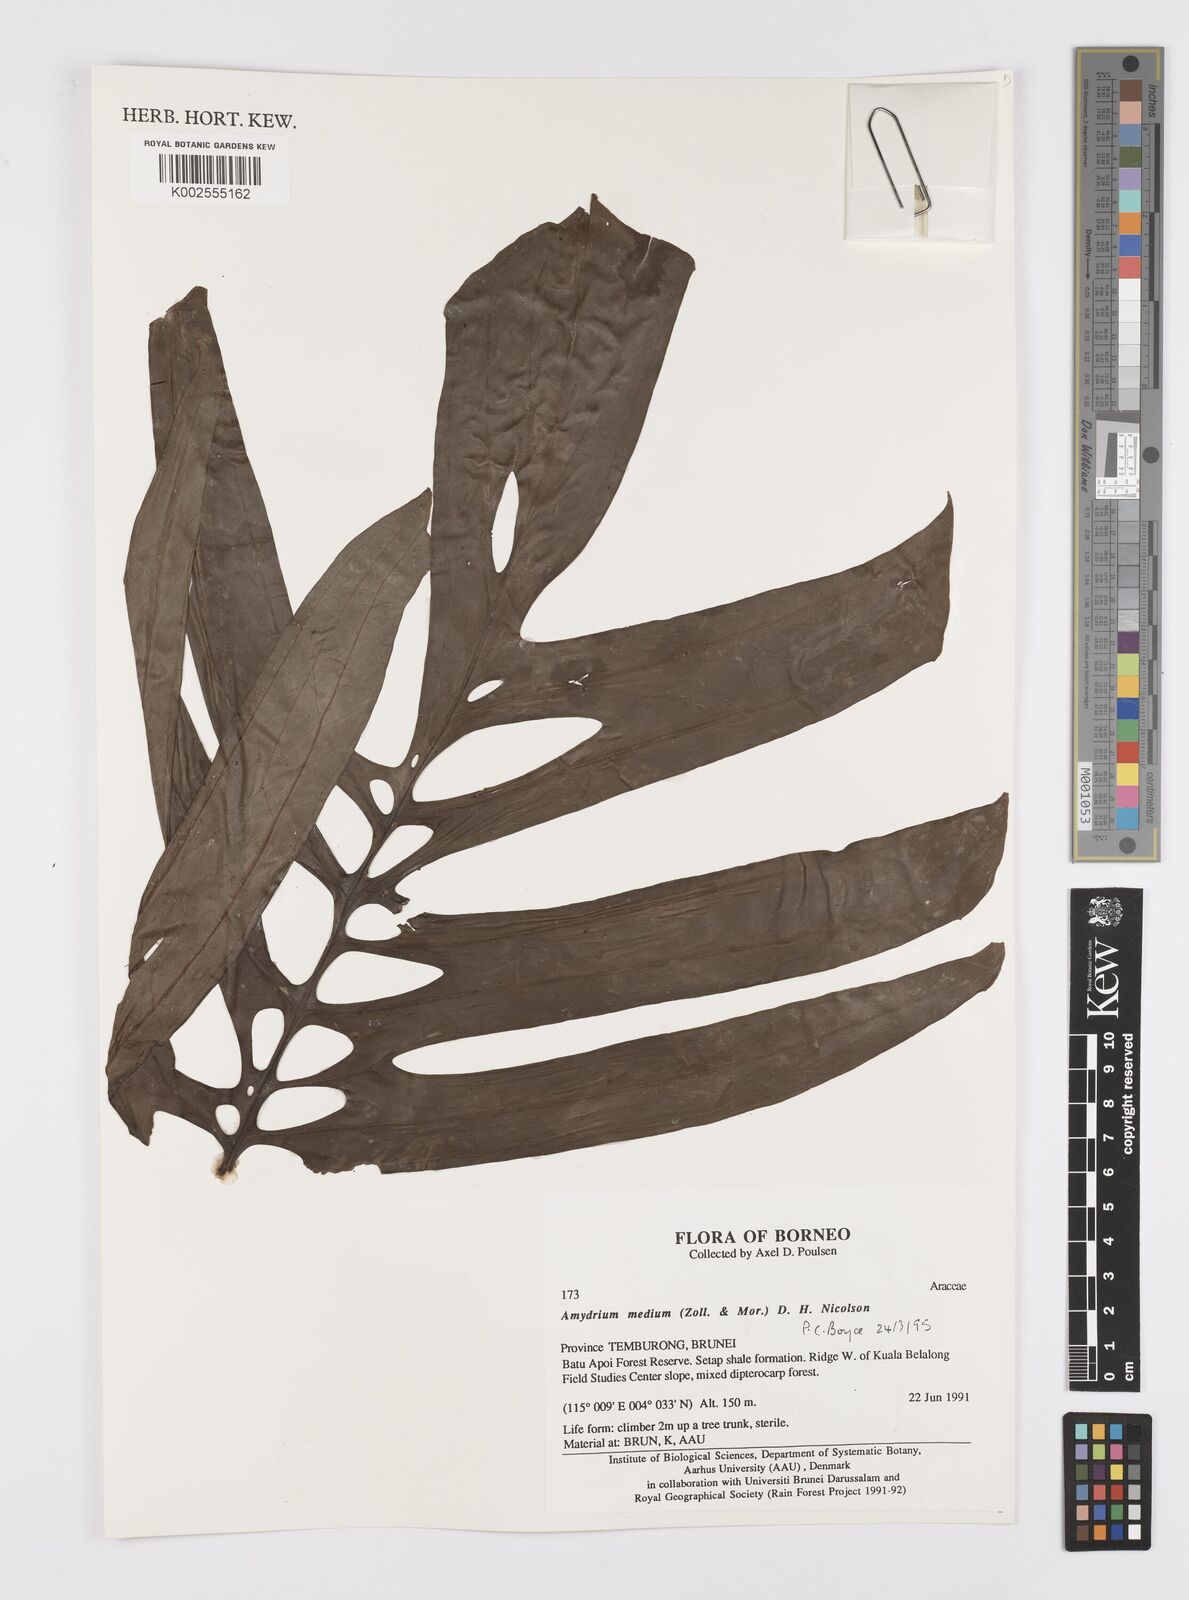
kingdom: Plantae
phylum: Tracheophyta
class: Liliopsida
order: Alismatales
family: Araceae
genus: Amydrium
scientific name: Amydrium medium
